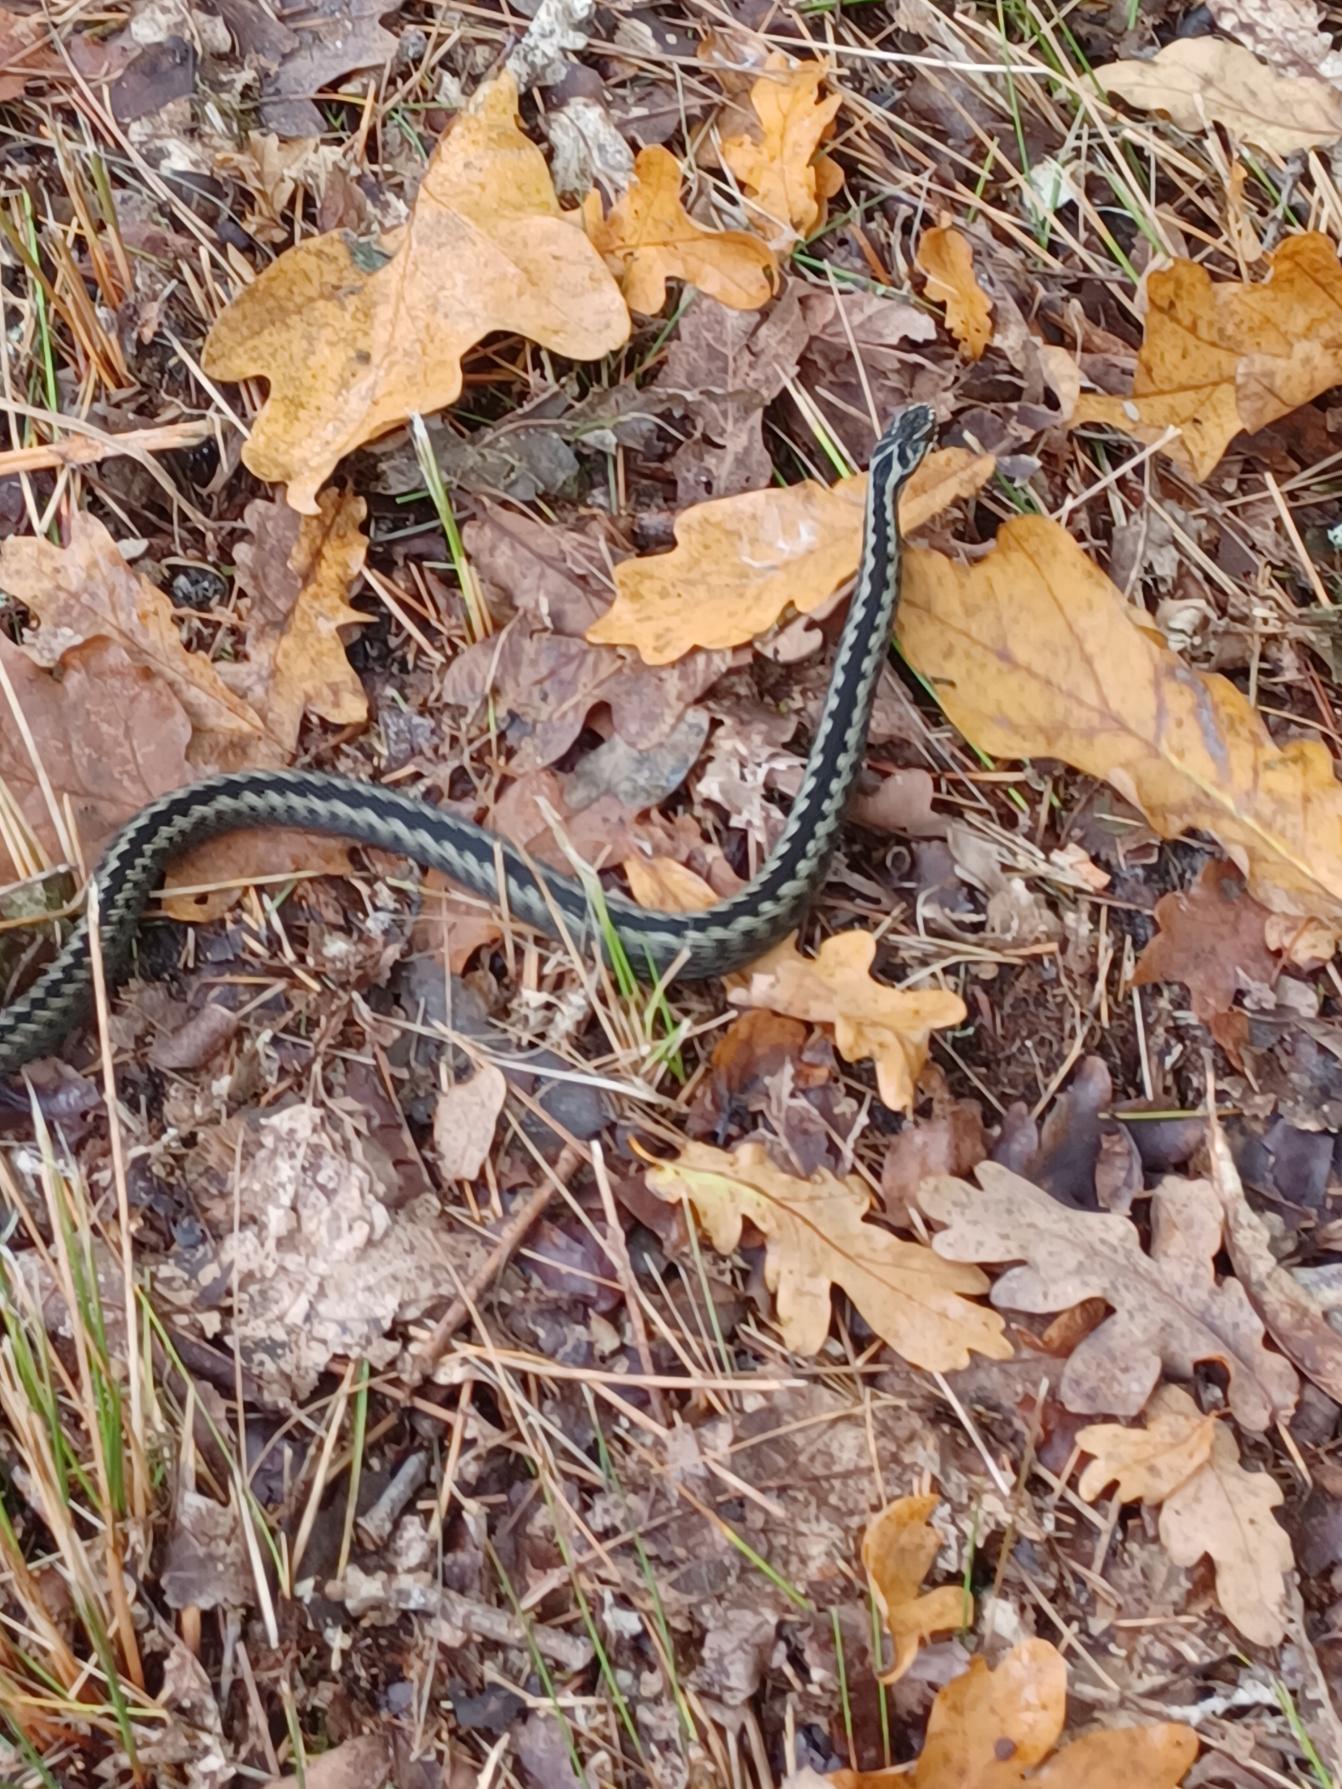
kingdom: Animalia
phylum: Chordata
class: Squamata
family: Viperidae
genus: Vipera
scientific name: Vipera berus
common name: Hugorm
